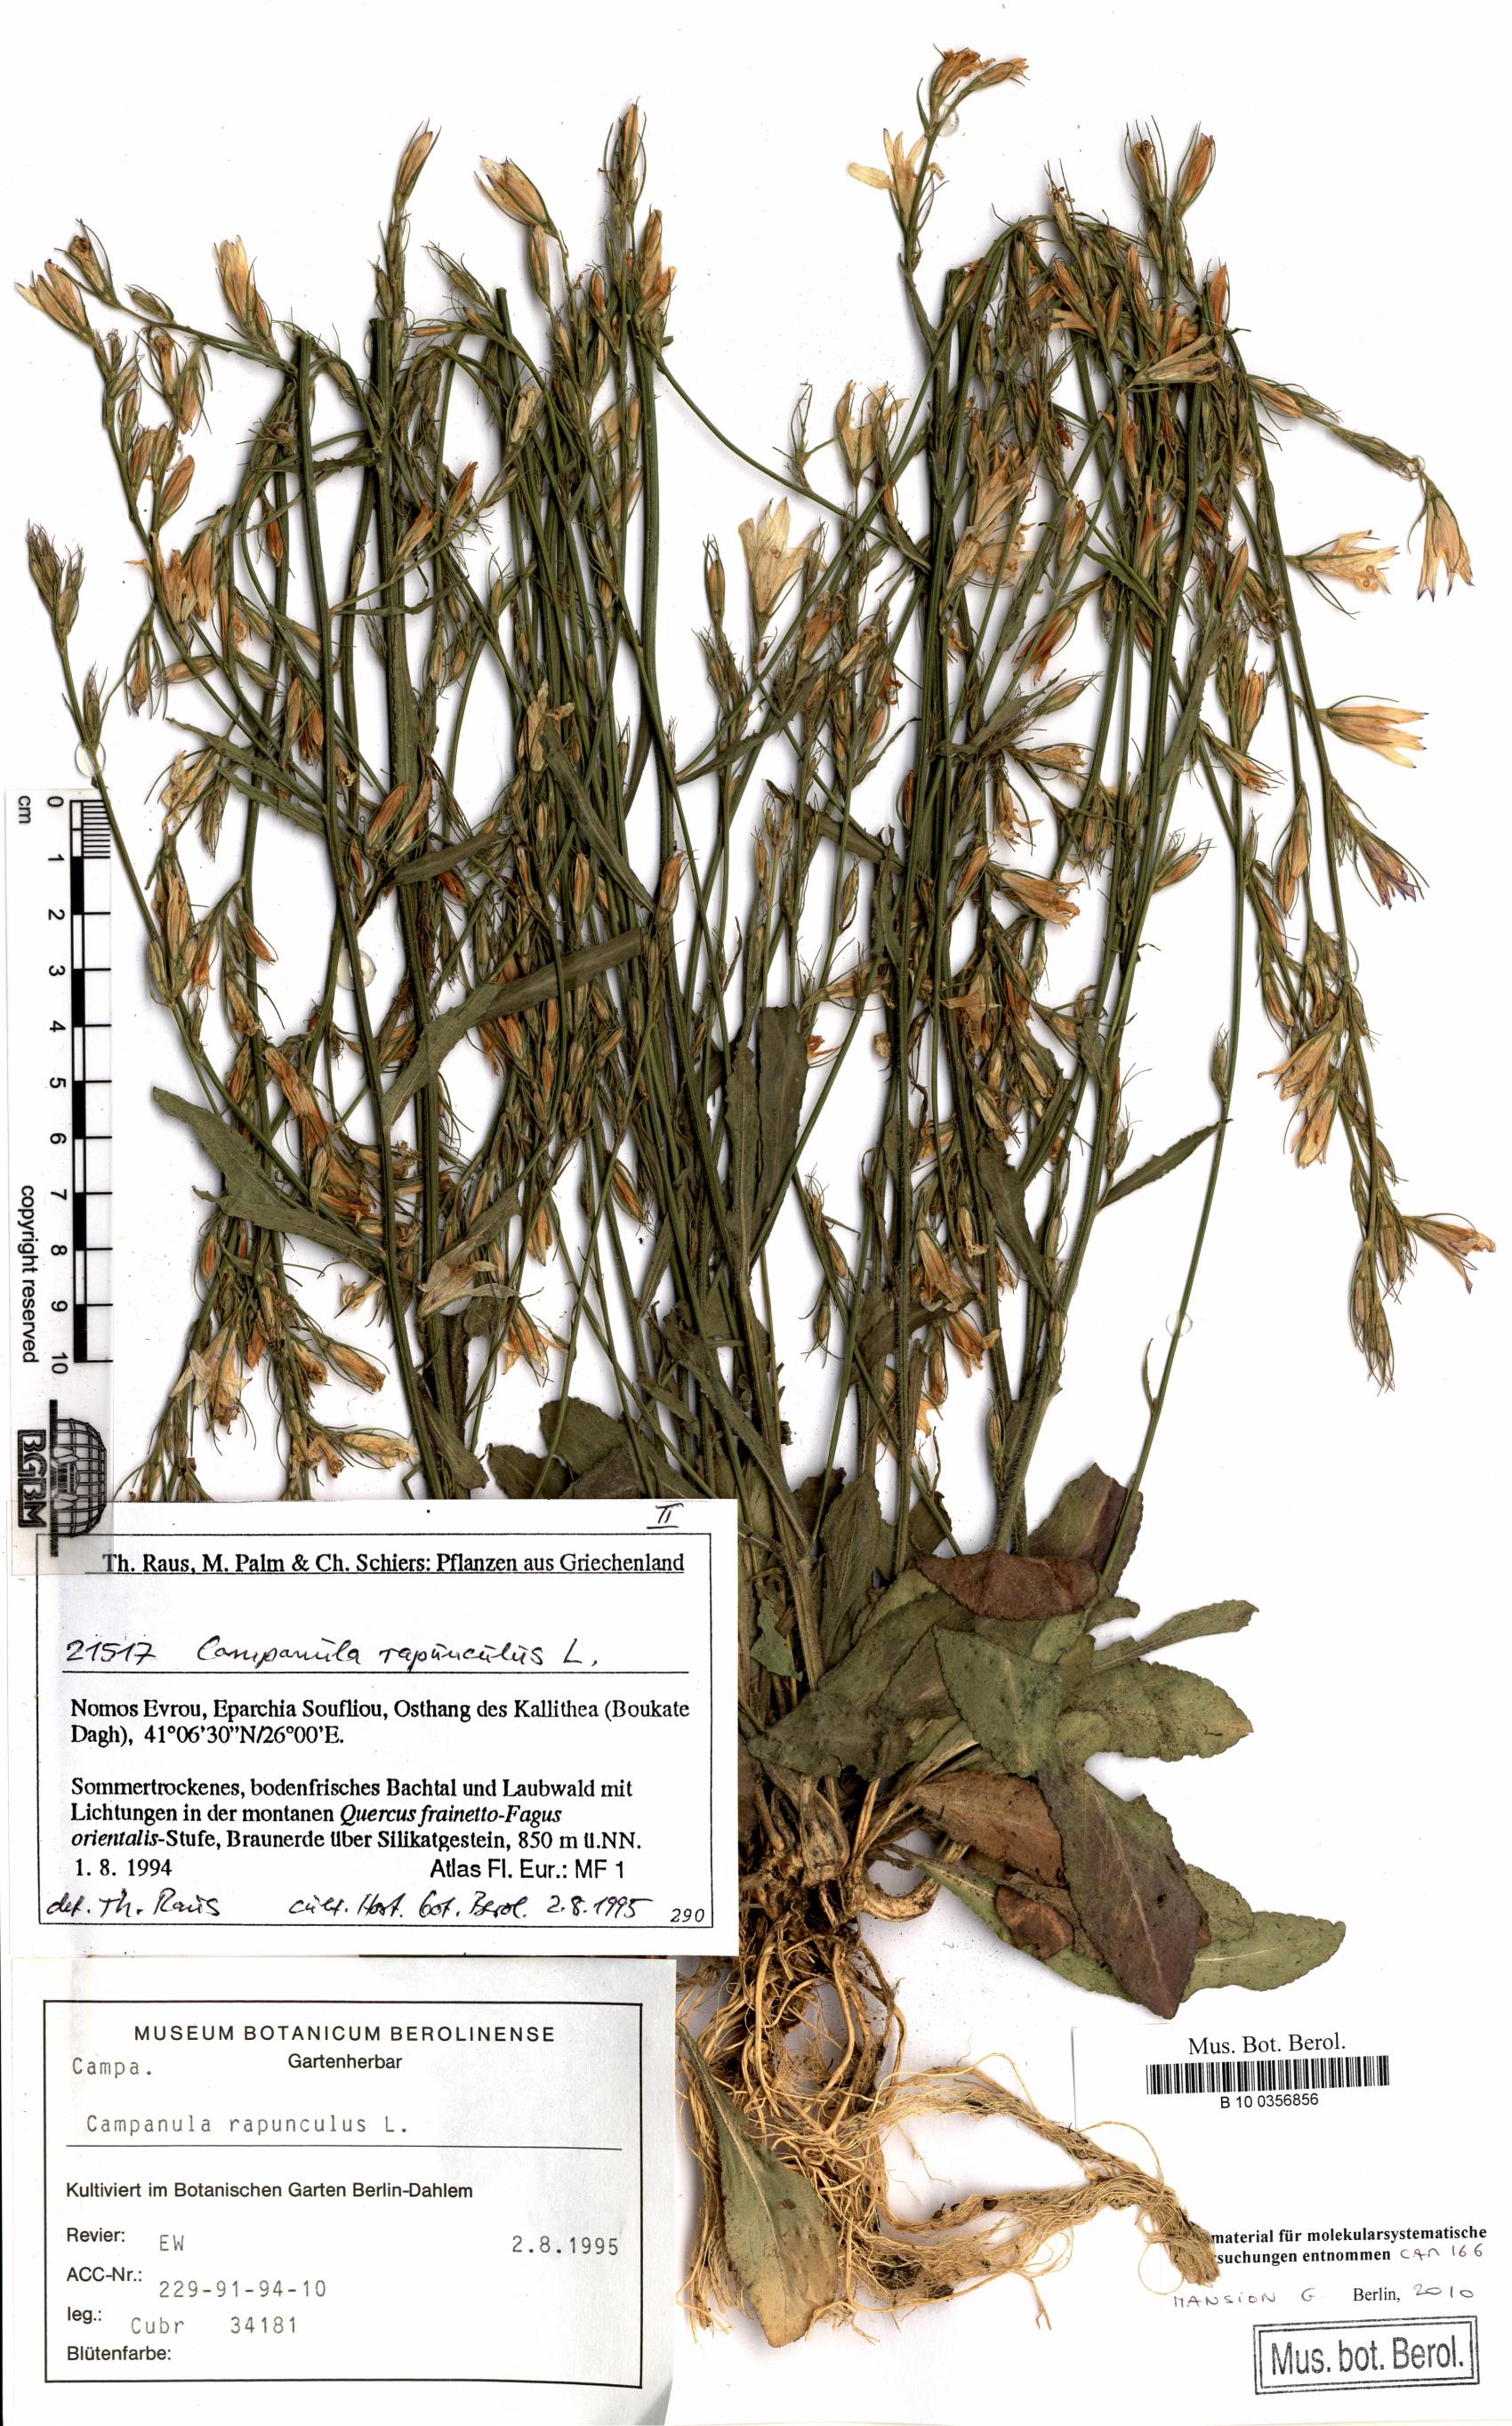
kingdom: Plantae
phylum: Tracheophyta
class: Magnoliopsida
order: Asterales
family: Campanulaceae
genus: Campanula
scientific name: Campanula rapunculus
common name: Rampion bellflower
